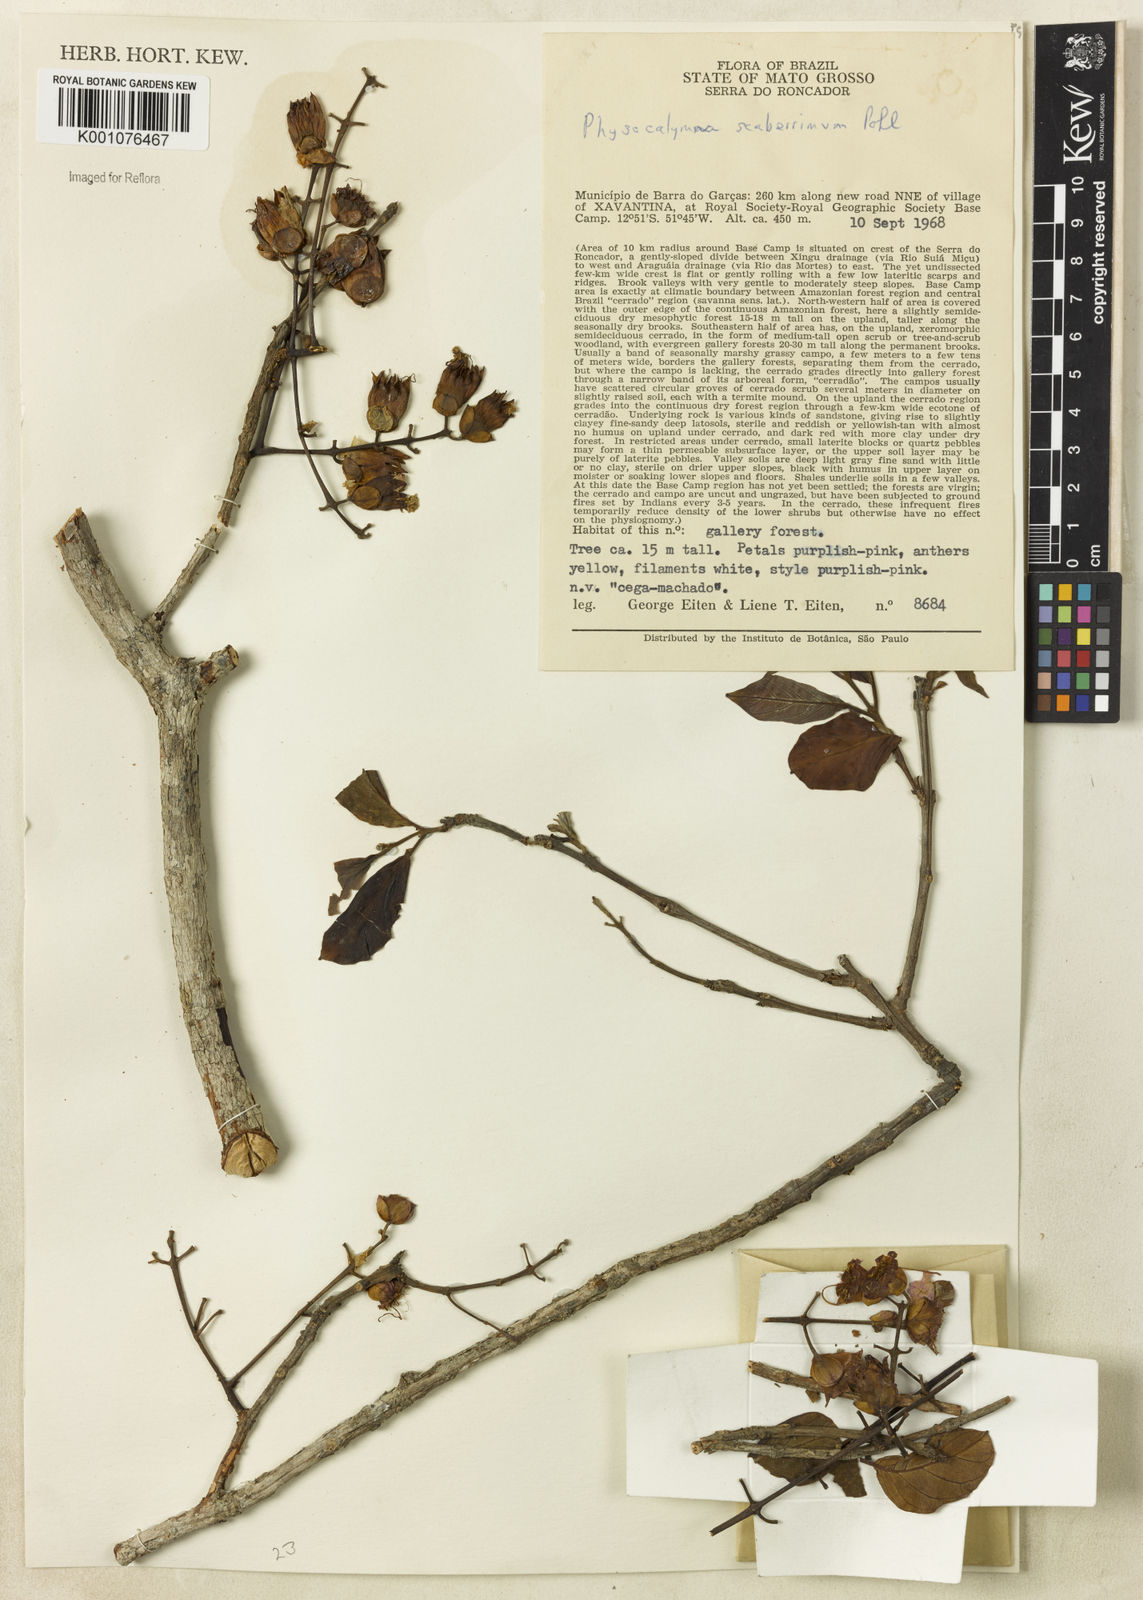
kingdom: Plantae
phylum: Tracheophyta
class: Magnoliopsida
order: Myrtales
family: Lythraceae
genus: Physocalymma
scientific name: Physocalymma scaberrimum
